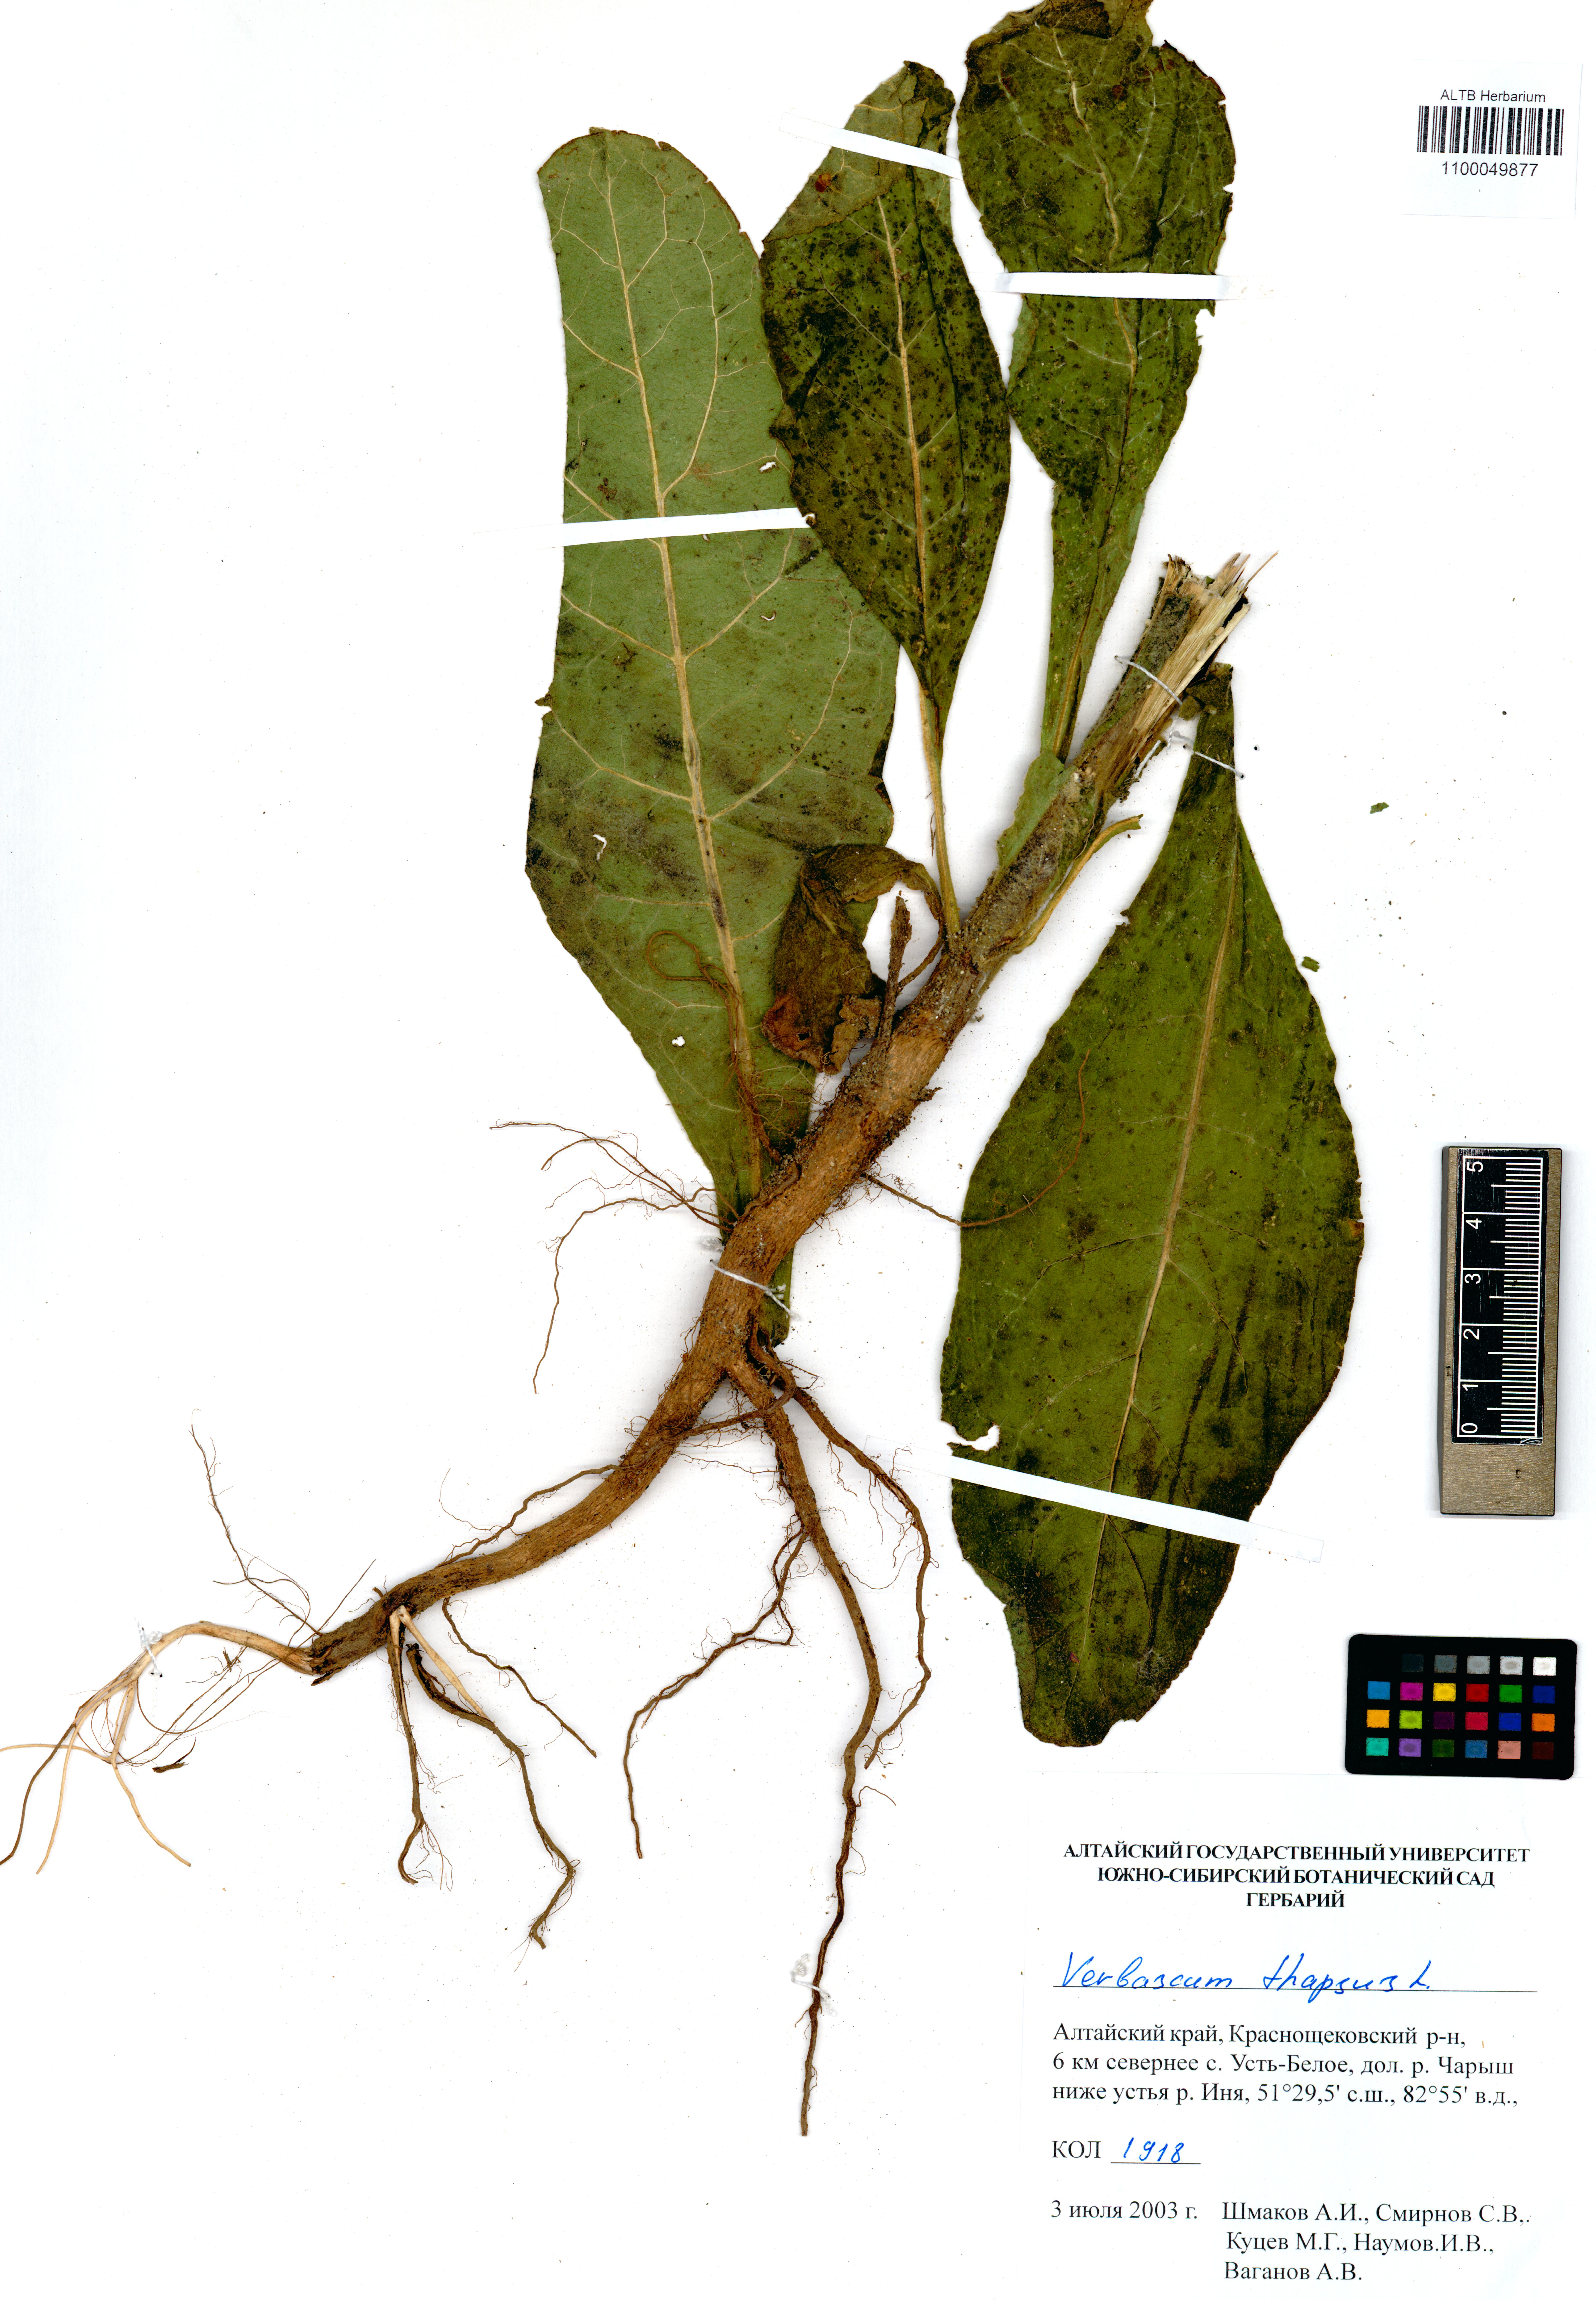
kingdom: Plantae
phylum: Tracheophyta
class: Magnoliopsida
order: Lamiales
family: Scrophulariaceae
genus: Verbascum
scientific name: Verbascum thapsus
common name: Common mullein
